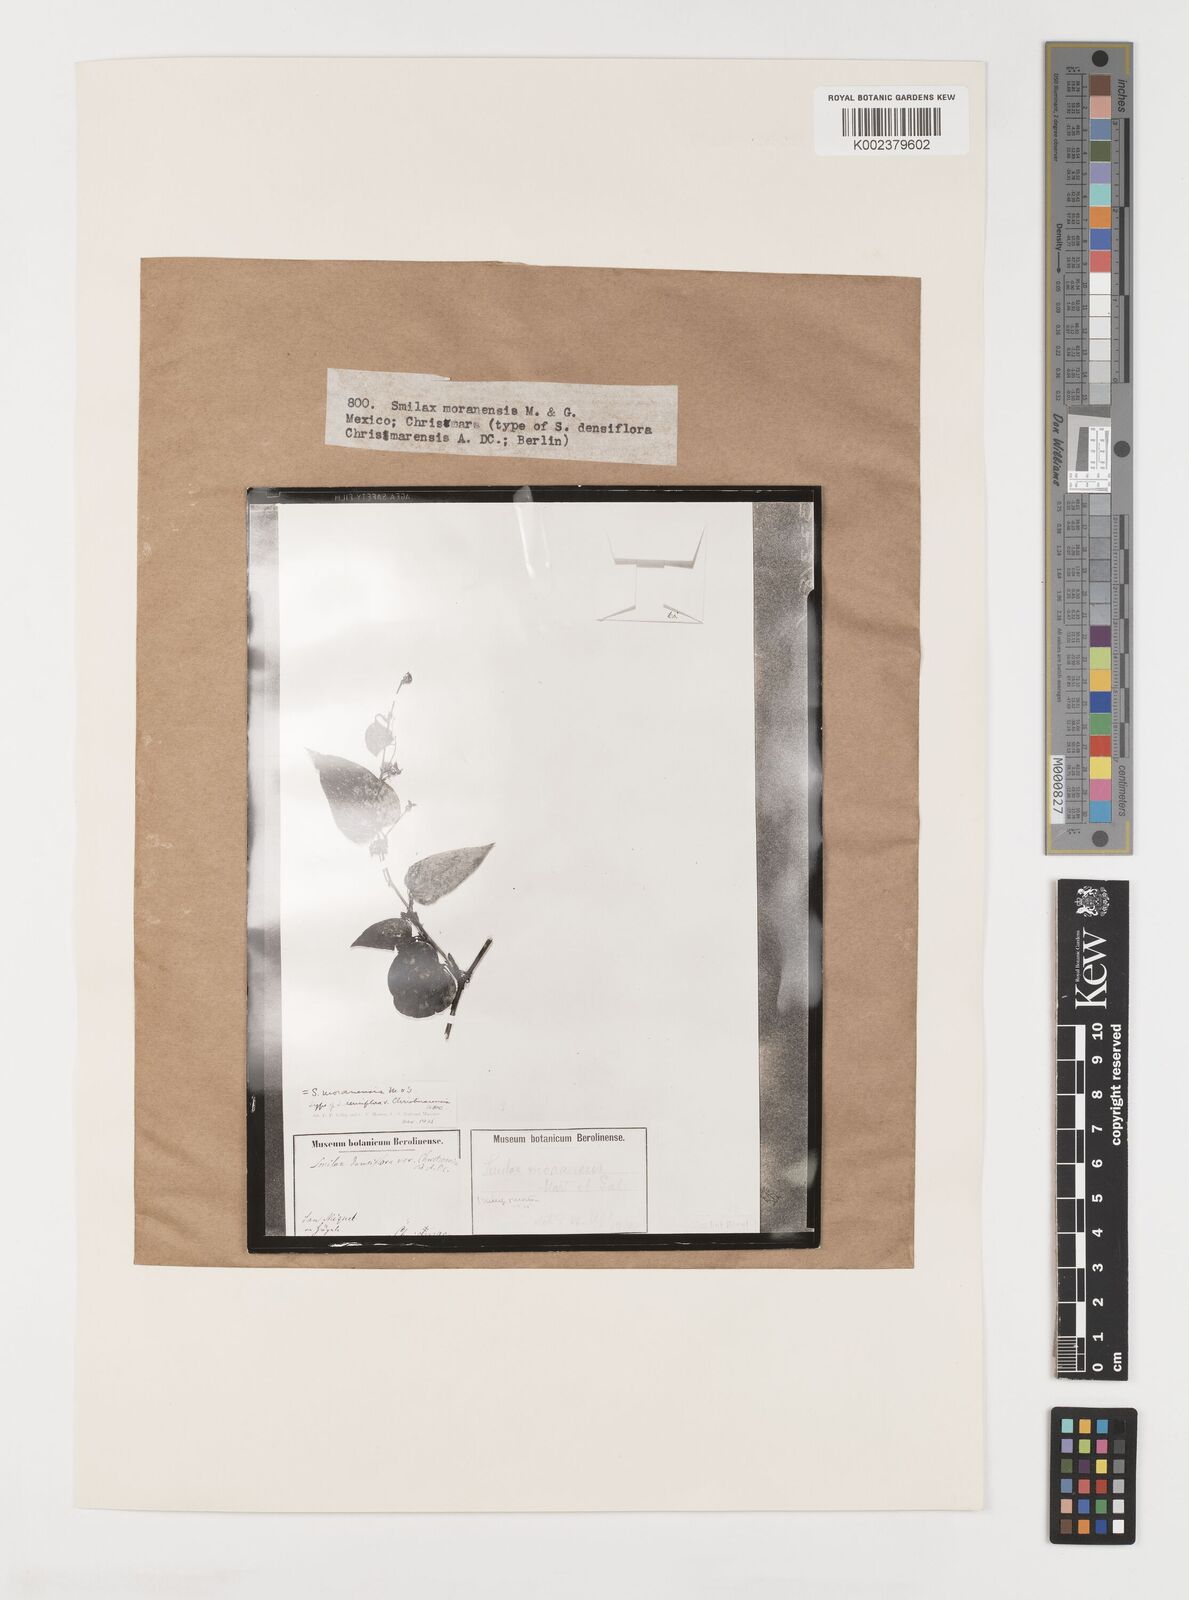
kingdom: Plantae
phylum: Tracheophyta
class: Liliopsida
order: Liliales
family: Smilacaceae
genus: Smilax
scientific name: Smilax moranensis
